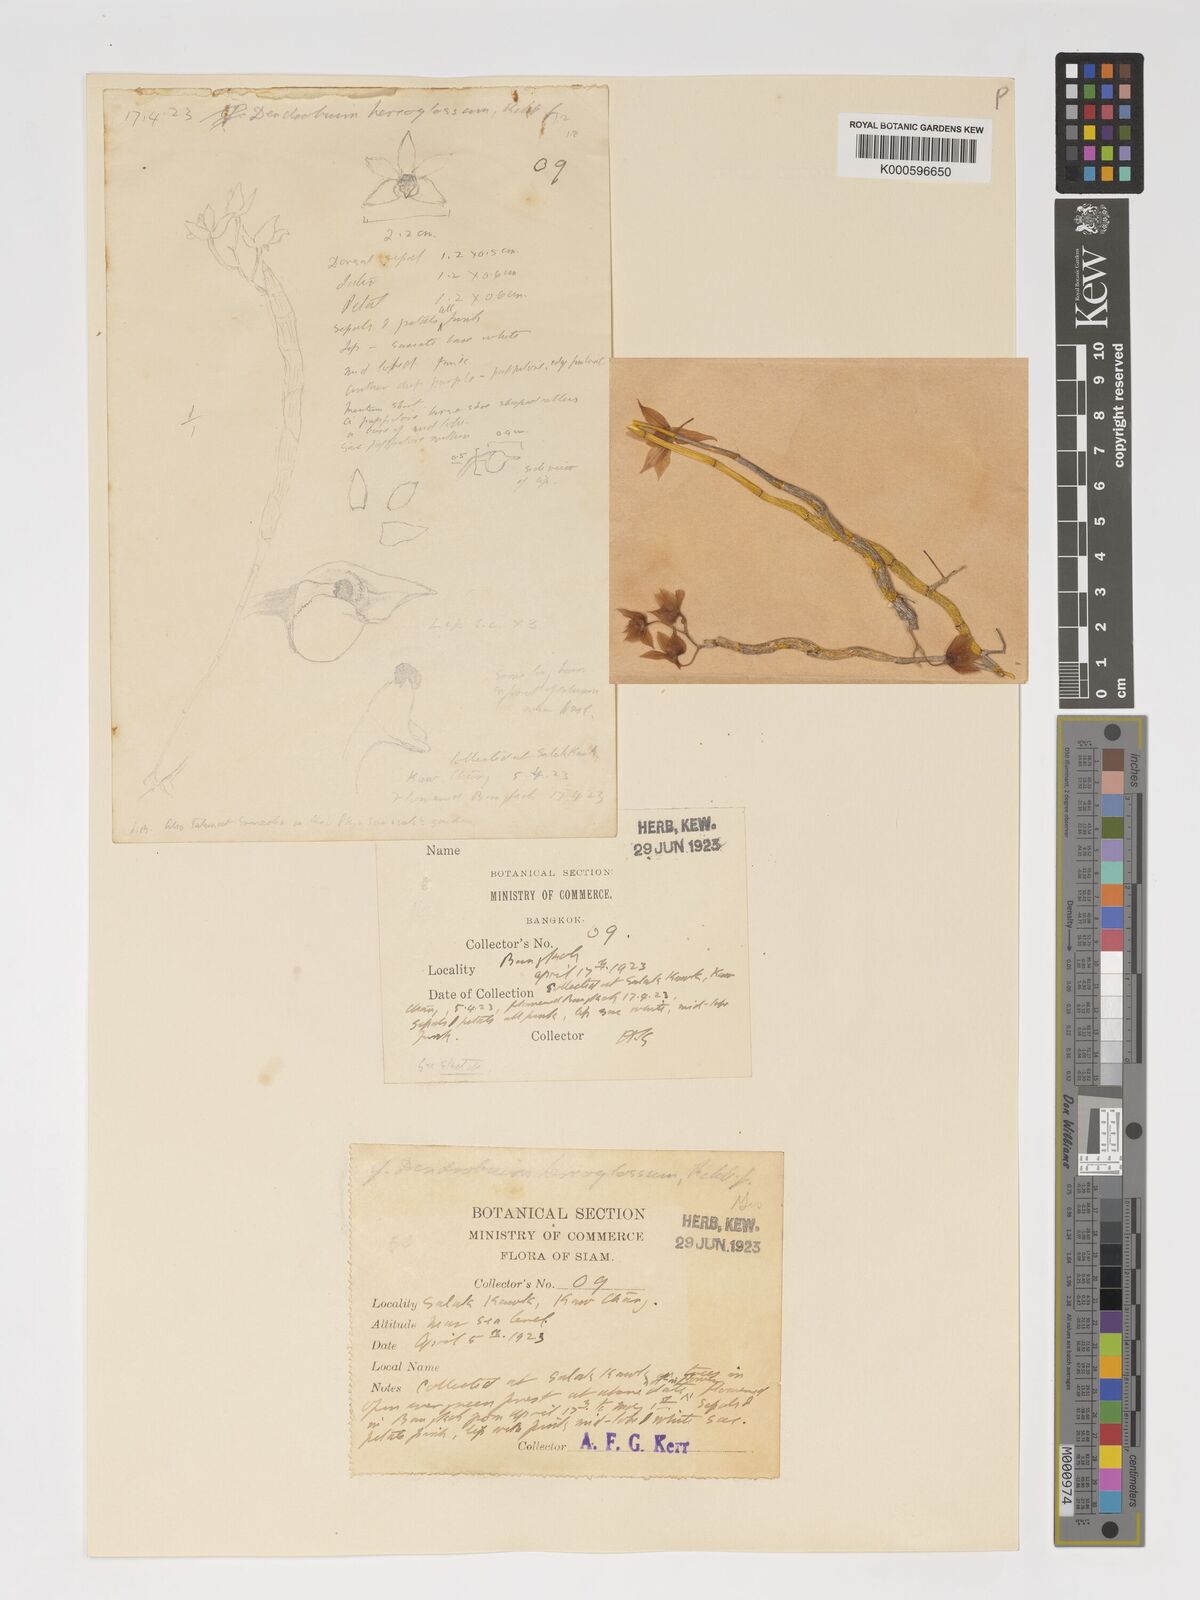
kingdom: Plantae
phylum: Tracheophyta
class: Liliopsida
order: Asparagales
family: Orchidaceae
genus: Dendrobium
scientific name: Dendrobium hercoglossum
